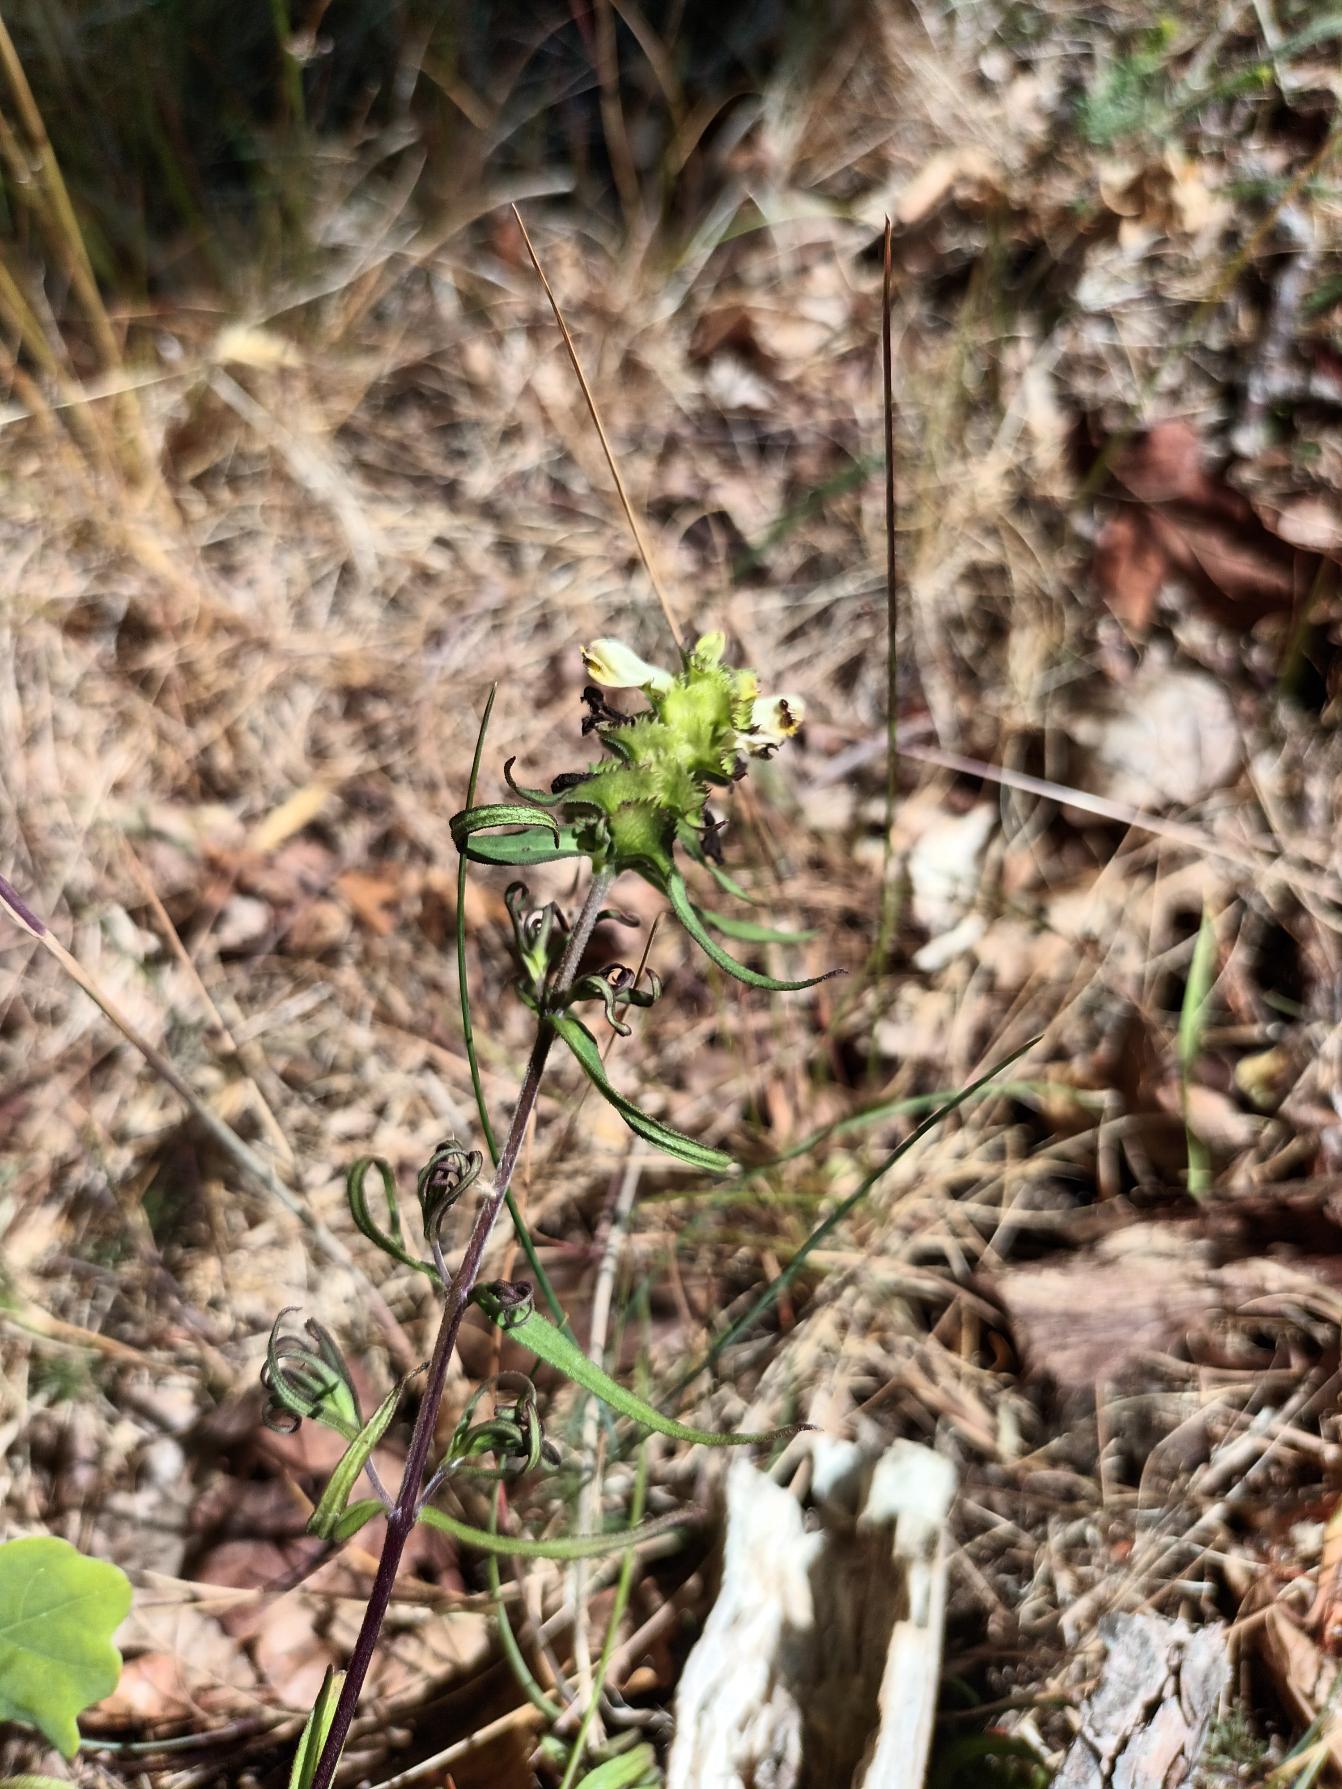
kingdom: Plantae
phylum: Tracheophyta
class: Magnoliopsida
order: Lamiales
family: Orobanchaceae
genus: Melampyrum
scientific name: Melampyrum cristatum
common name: Kantet kohvede
